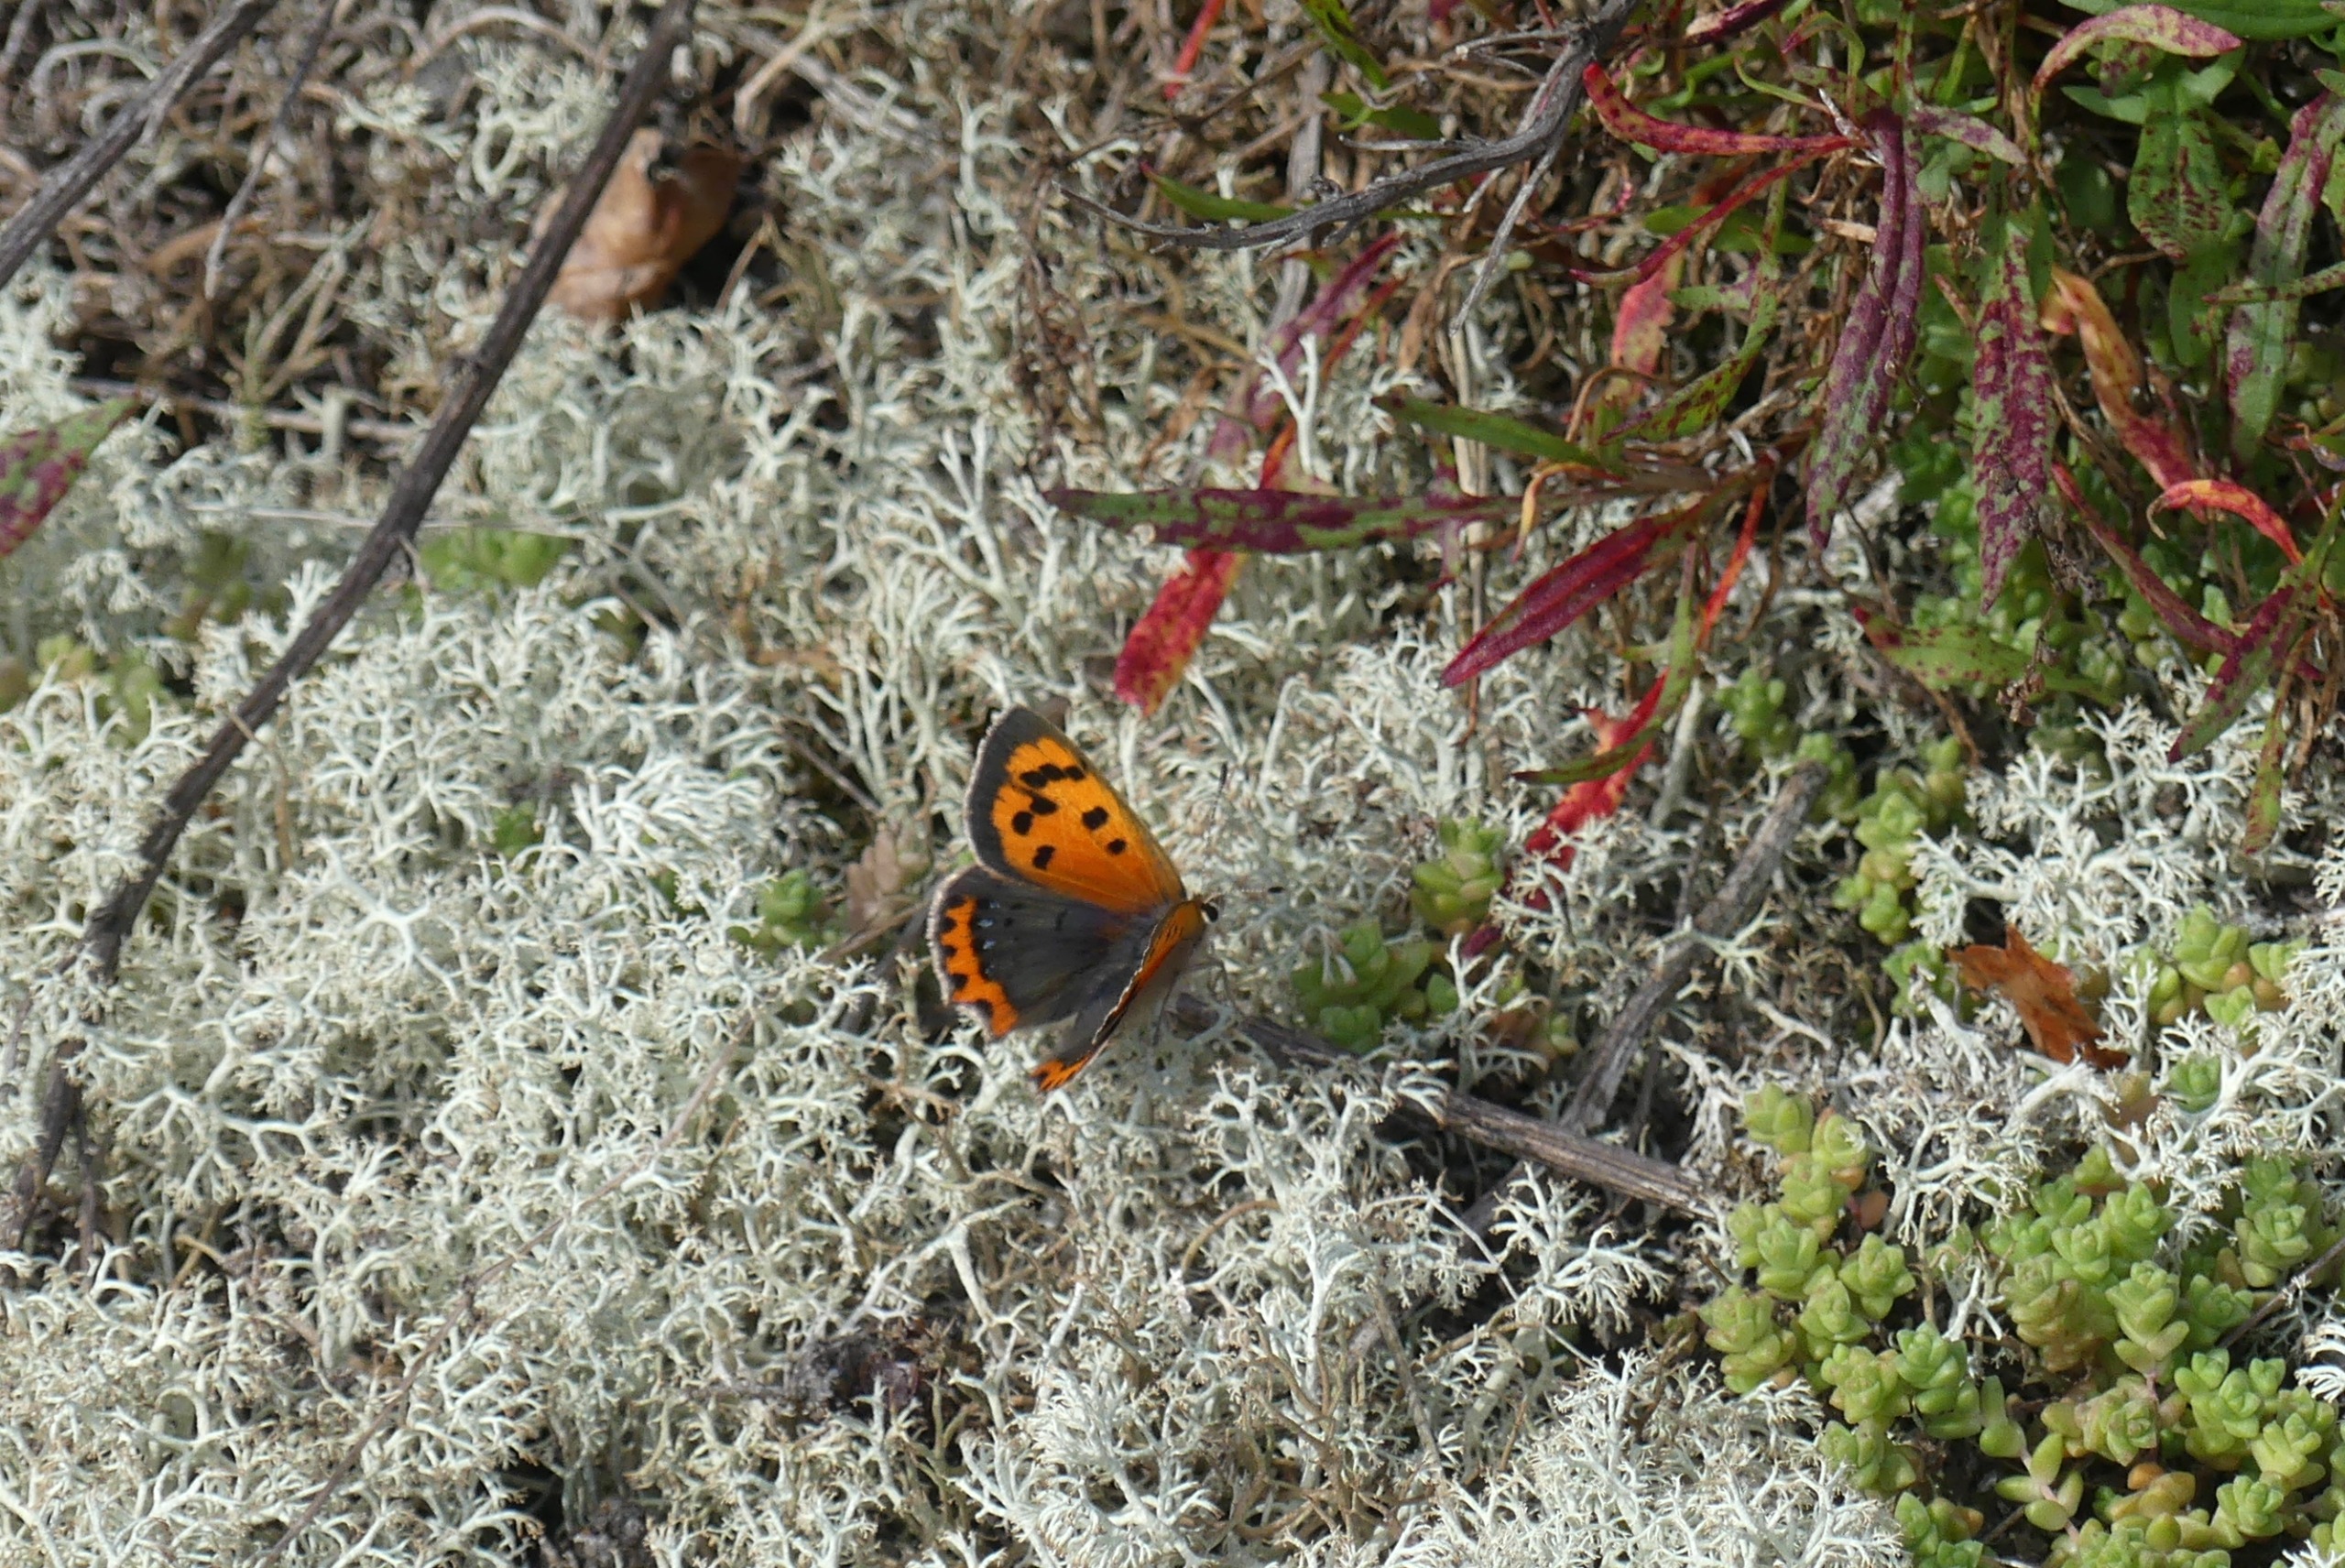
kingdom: Animalia
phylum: Arthropoda
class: Insecta
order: Lepidoptera
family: Lycaenidae
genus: Lycaena
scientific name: Lycaena phlaeas
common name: Lille ildfugl
